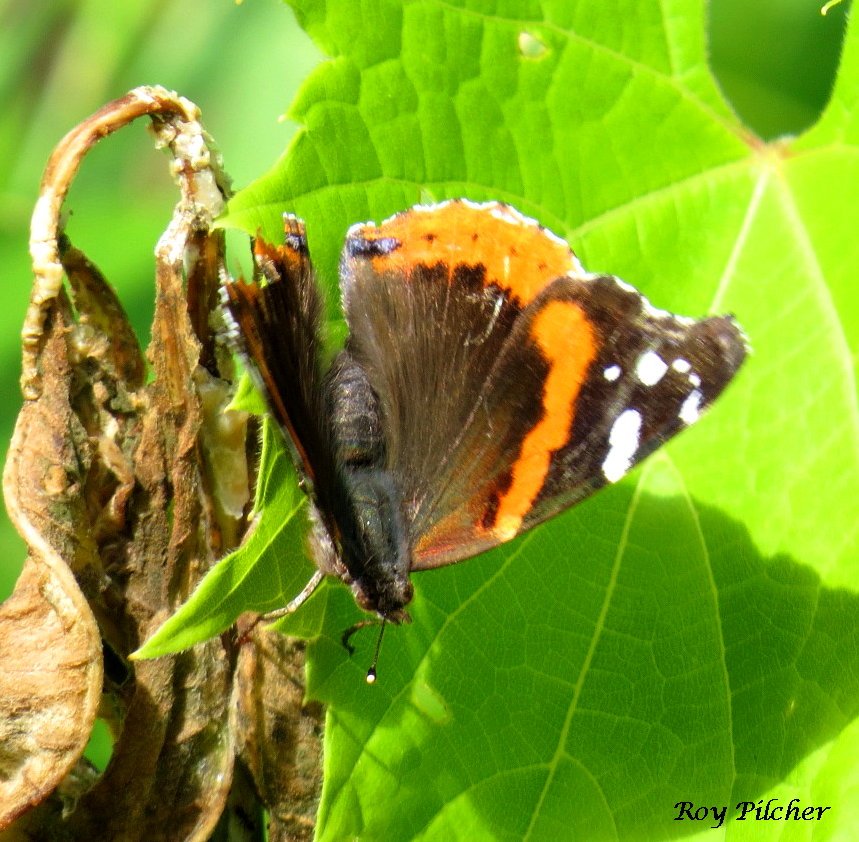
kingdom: Animalia
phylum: Arthropoda
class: Insecta
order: Lepidoptera
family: Nymphalidae
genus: Vanessa
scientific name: Vanessa atalanta
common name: Red Admiral
